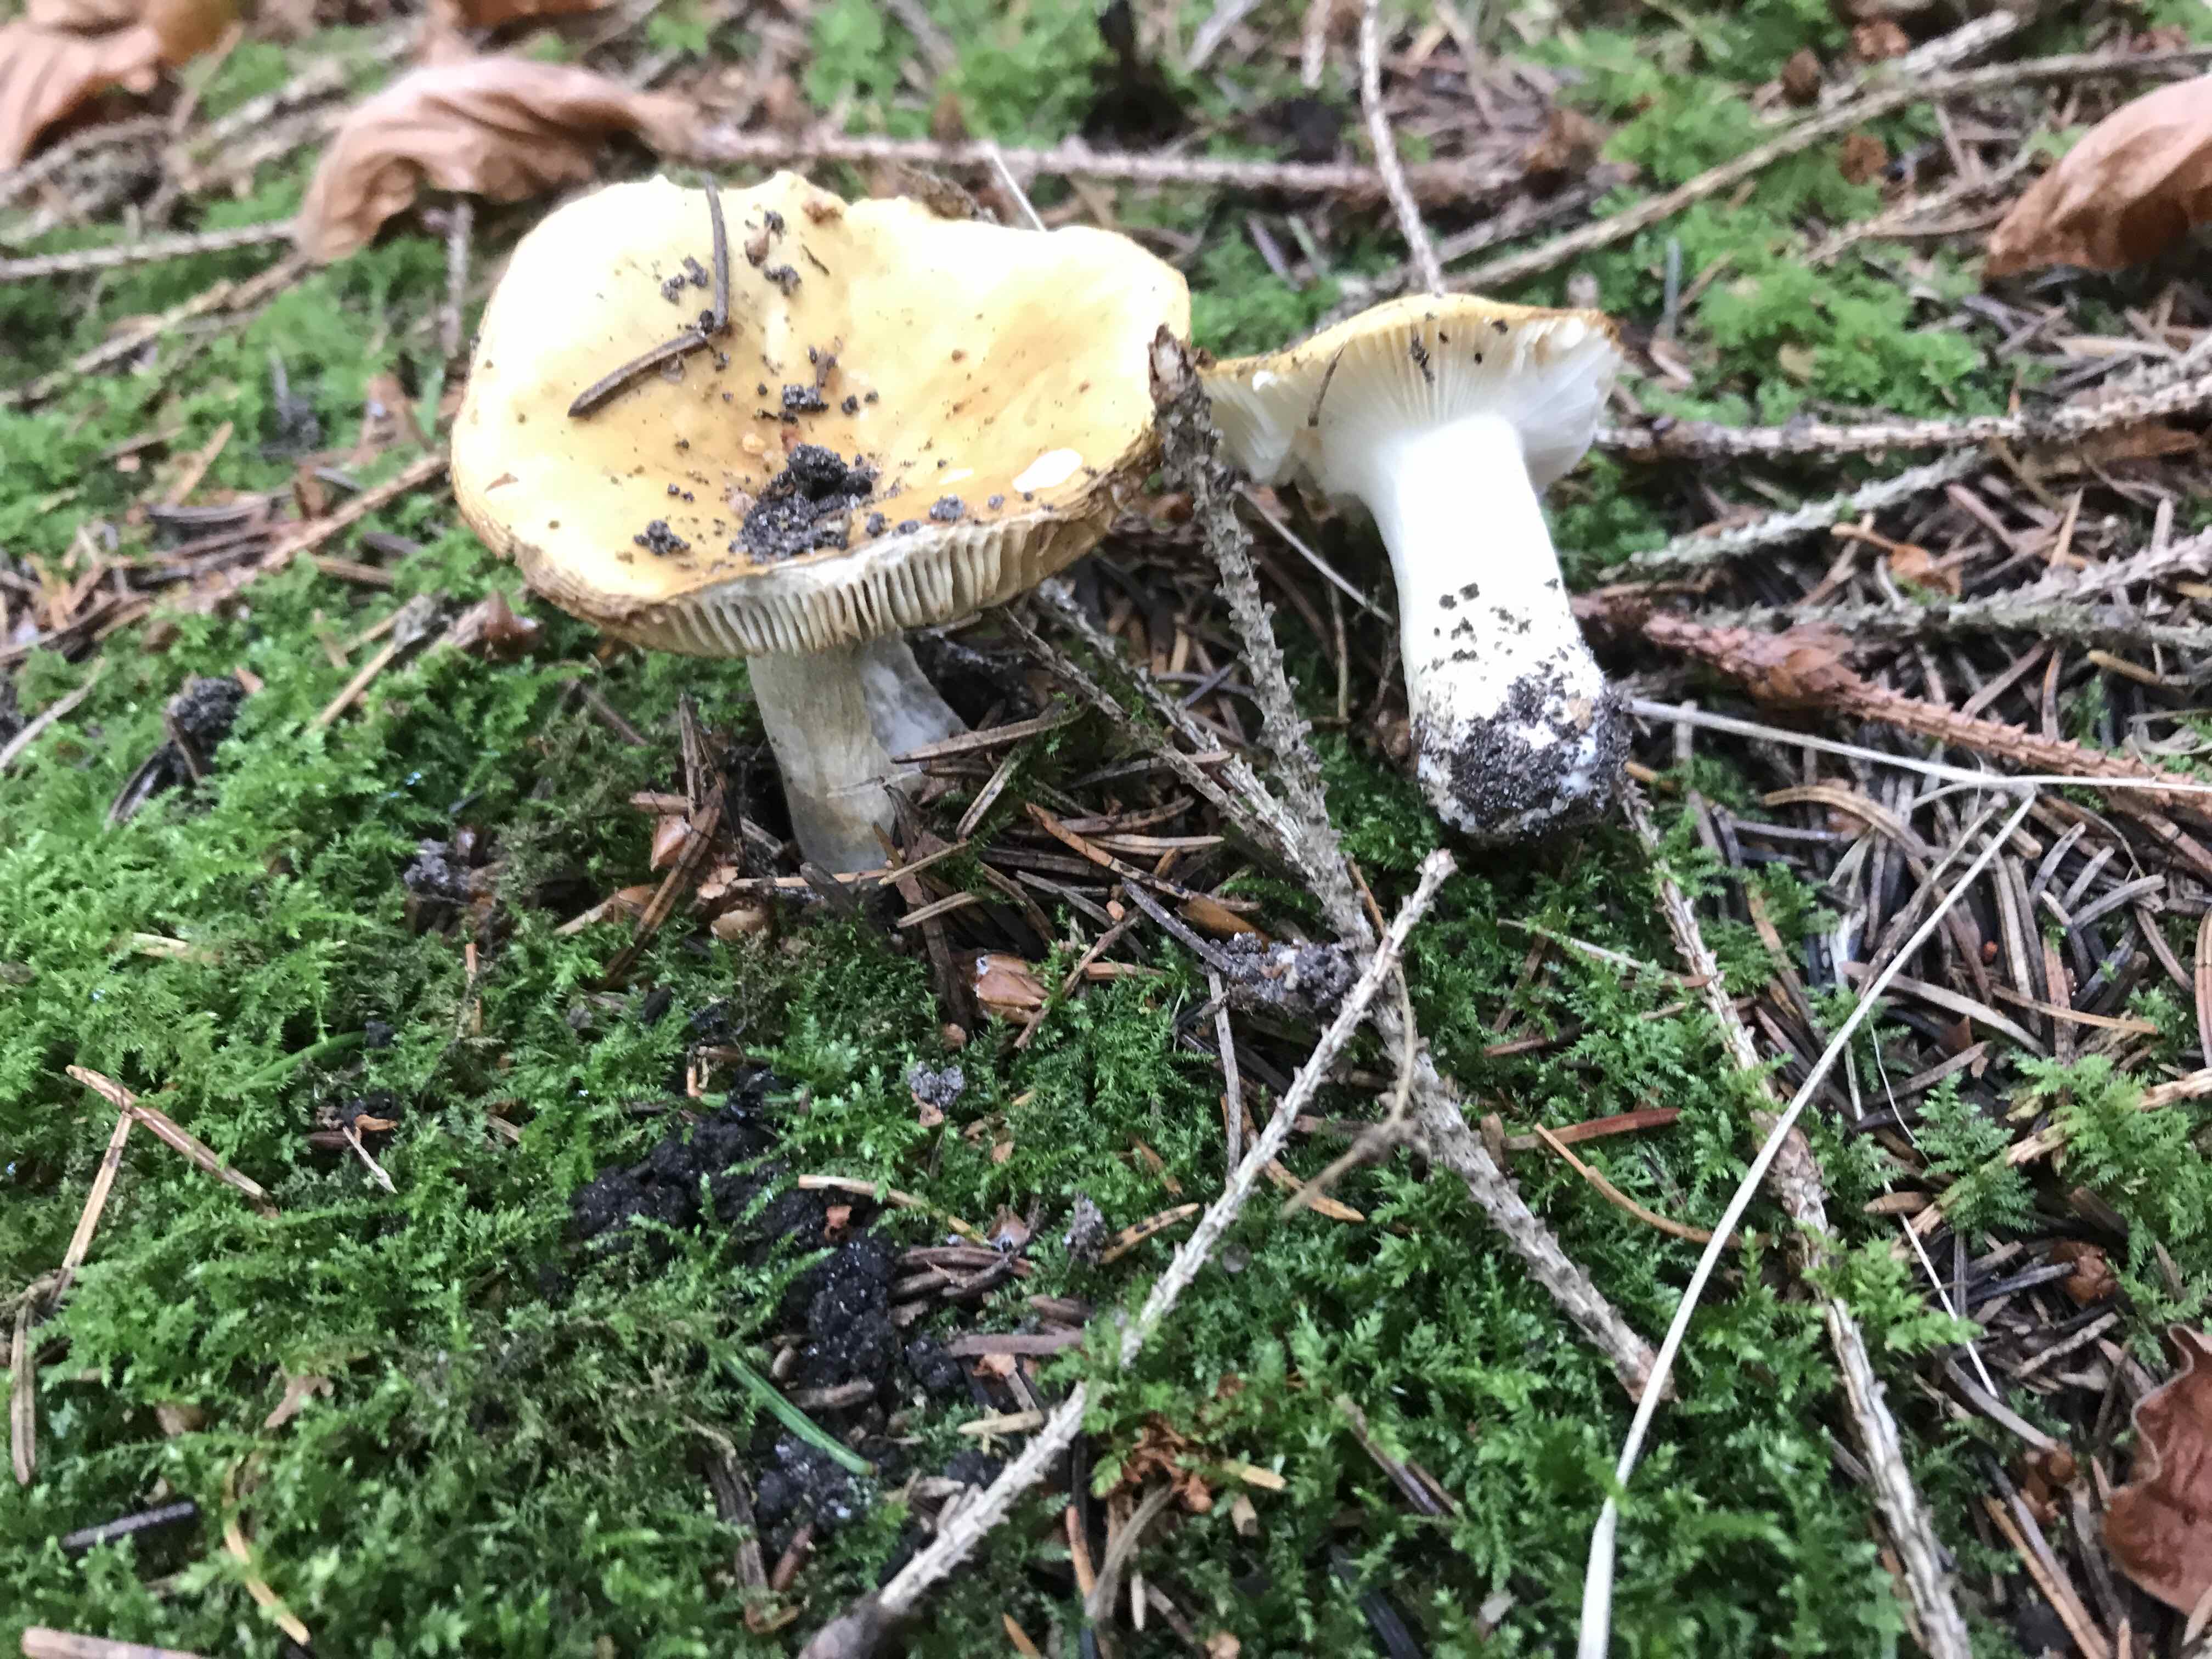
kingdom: Fungi
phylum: Basidiomycota
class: Agaricomycetes
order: Russulales
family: Russulaceae
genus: Russula
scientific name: Russula ochroleuca
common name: okkergul skørhat
